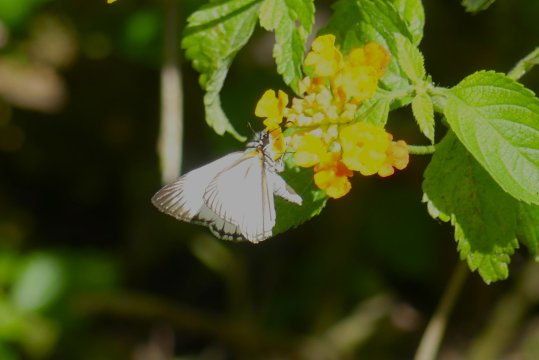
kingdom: Animalia
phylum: Arthropoda
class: Insecta
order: Lepidoptera
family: Hesperiidae
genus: Heliopetes
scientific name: Heliopetes arsalte
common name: Veined White-Skipper
